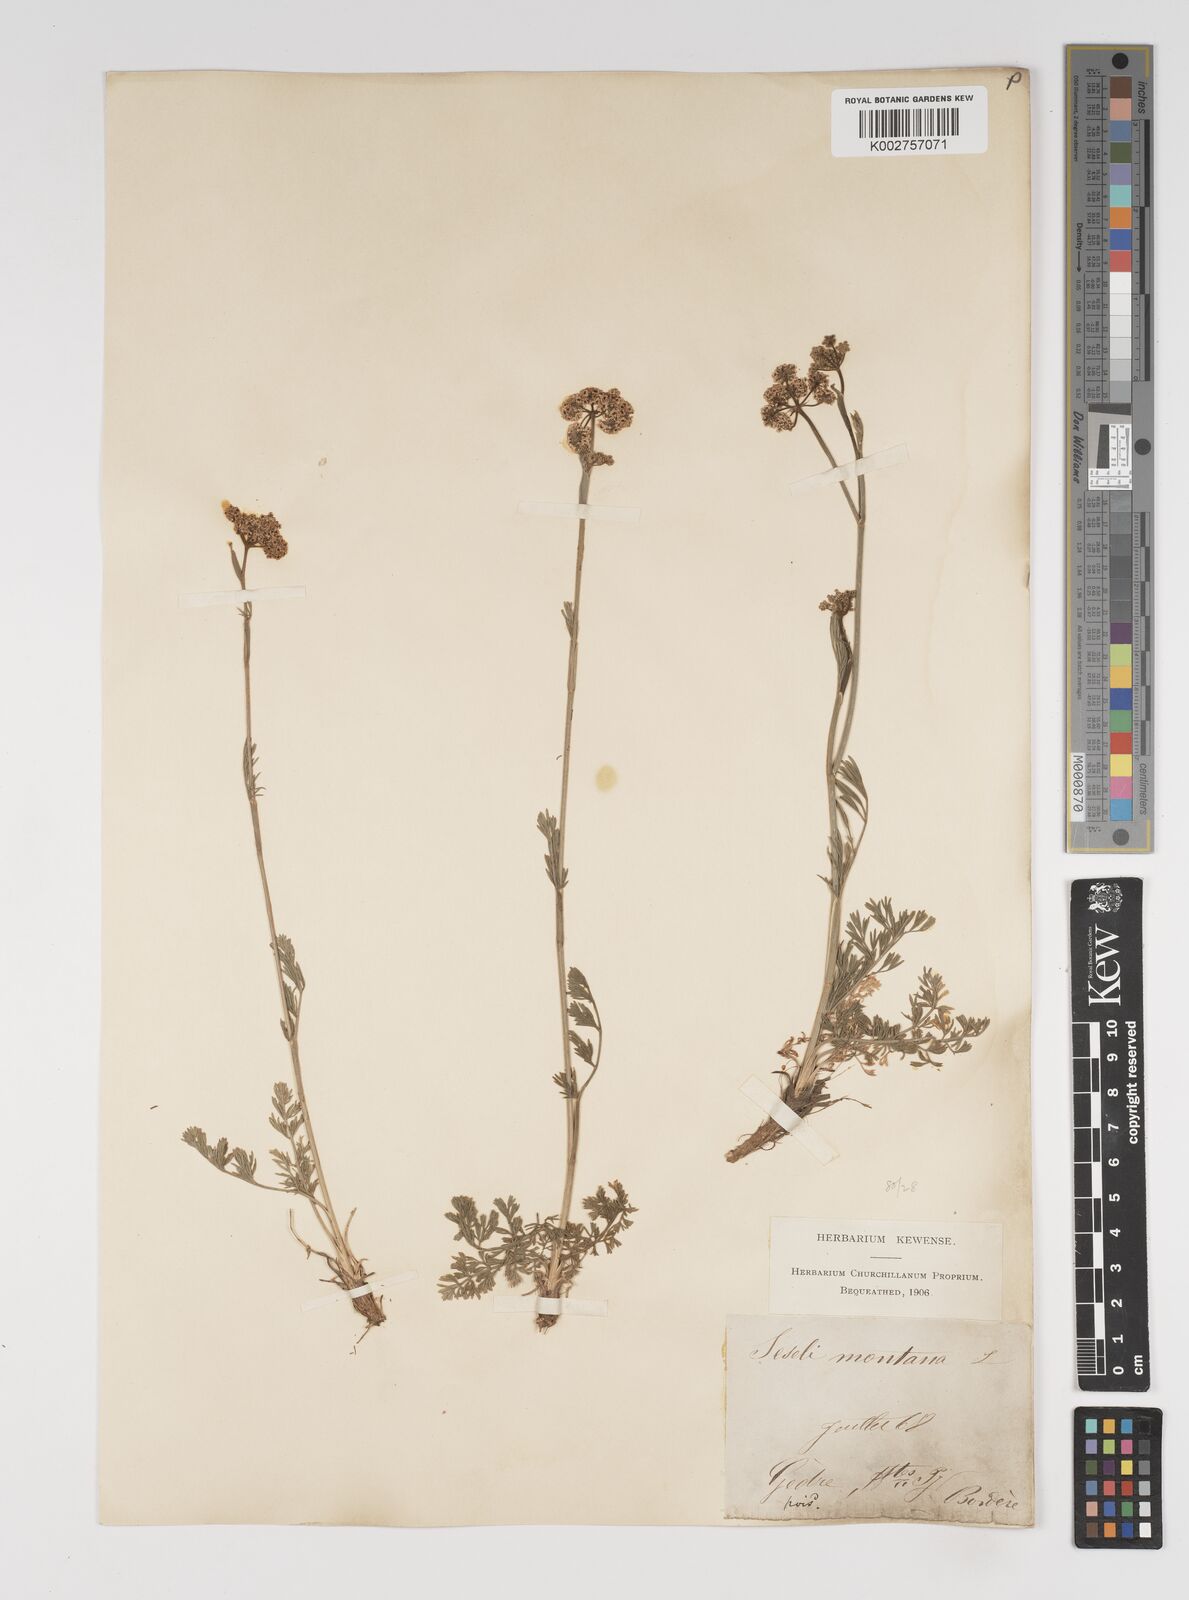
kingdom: Plantae
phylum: Tracheophyta
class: Magnoliopsida
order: Apiales
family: Apiaceae
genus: Seseli
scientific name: Seseli montanum
